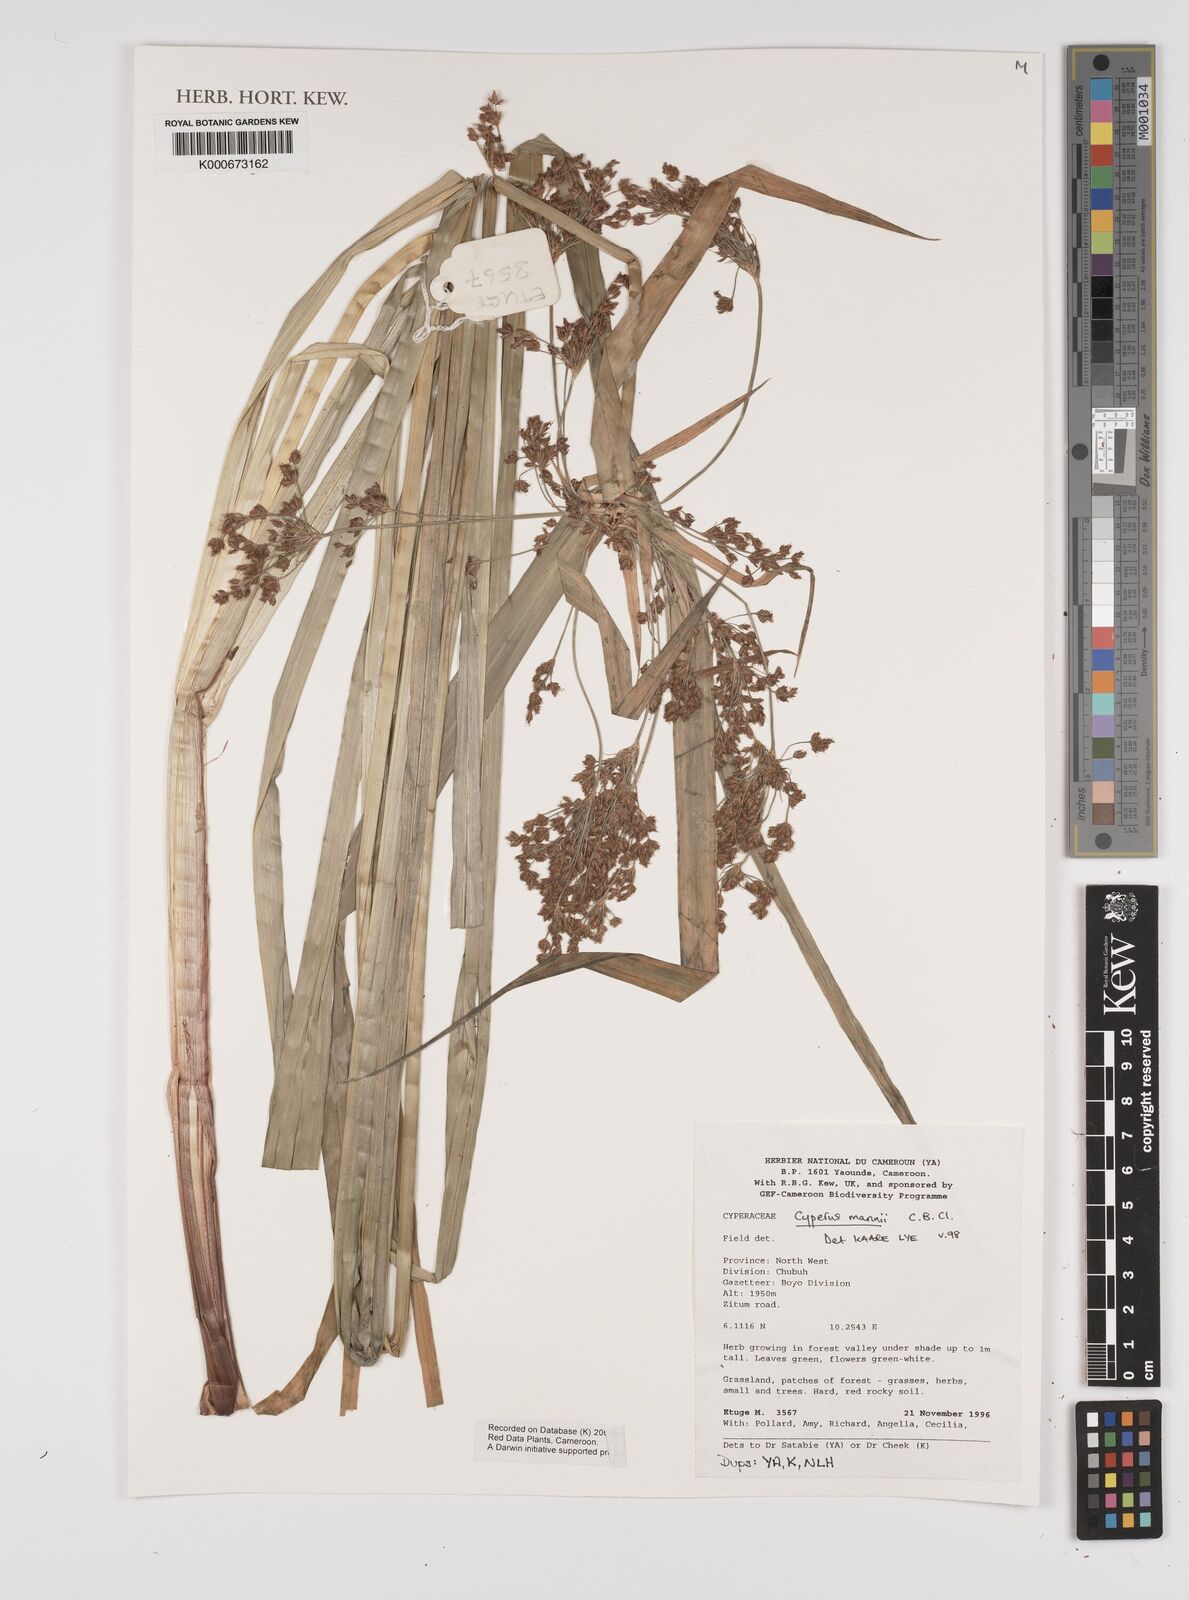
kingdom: Plantae
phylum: Tracheophyta
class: Liliopsida
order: Poales
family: Cyperaceae
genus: Cyperus
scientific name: Cyperus baronii
